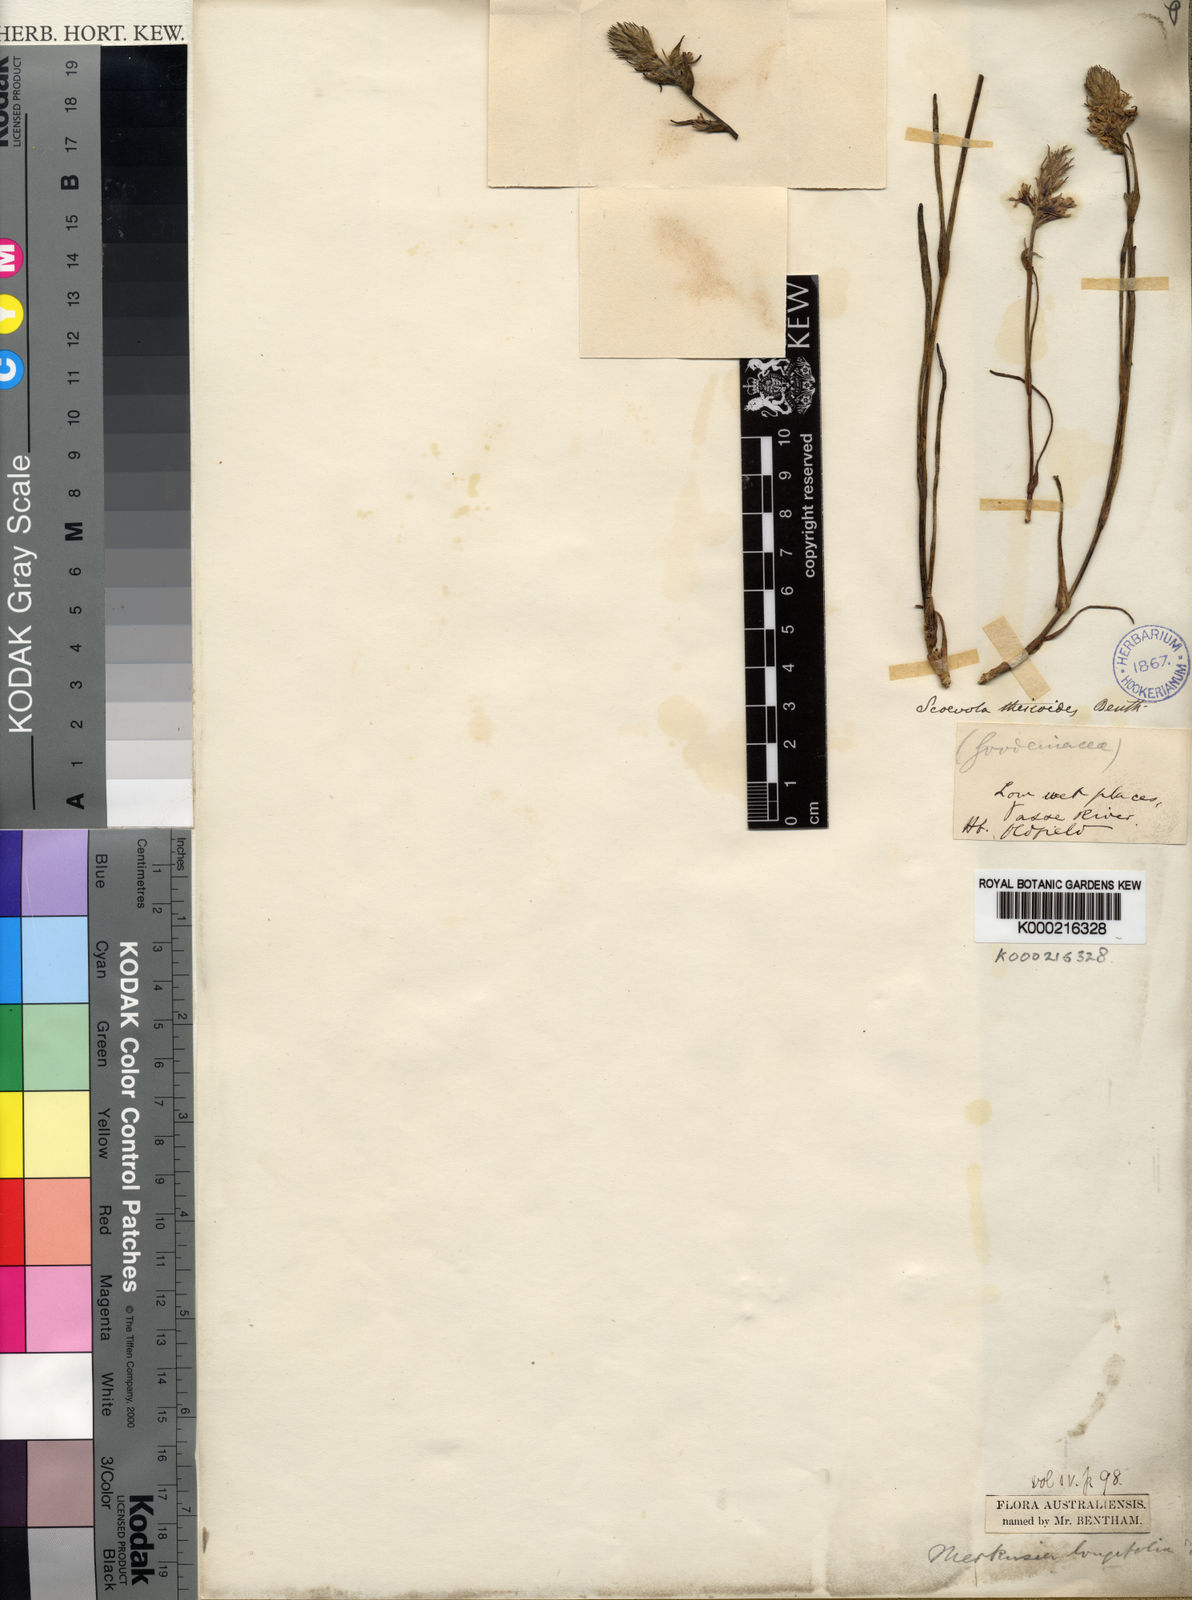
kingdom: Plantae
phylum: Tracheophyta
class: Magnoliopsida
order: Asterales
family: Goodeniaceae
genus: Scaevola
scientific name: Scaevola thesioides
